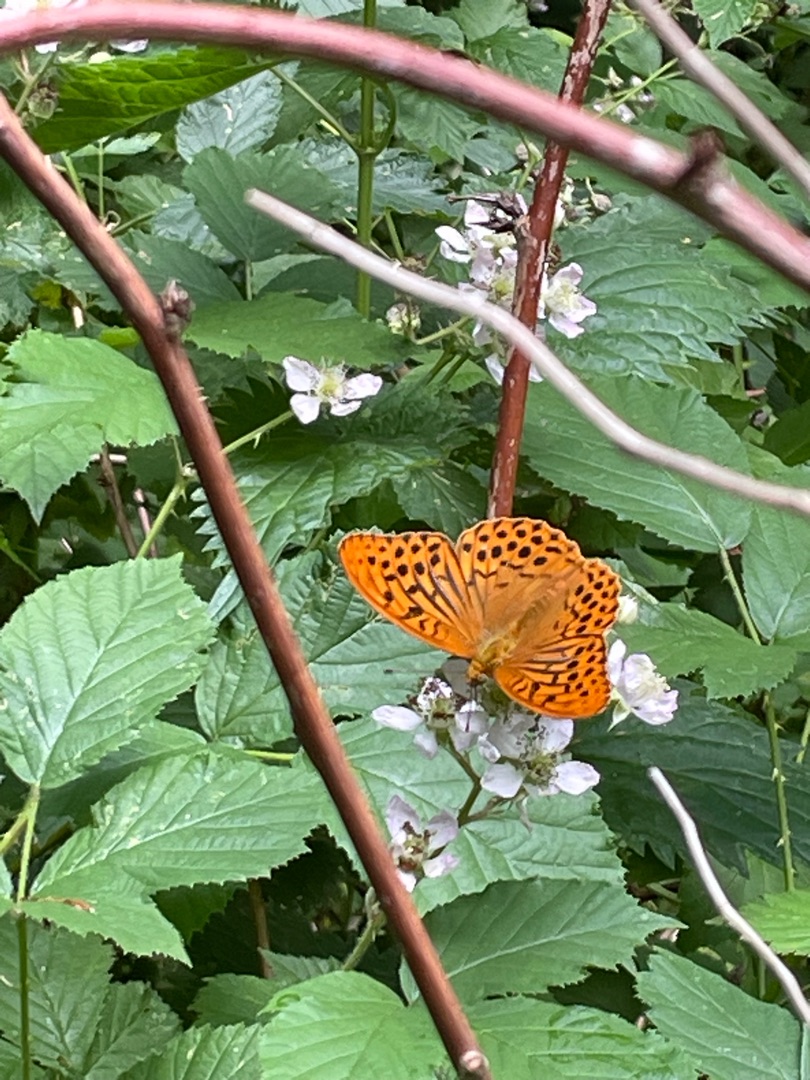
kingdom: Animalia
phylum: Arthropoda
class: Insecta
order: Lepidoptera
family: Nymphalidae
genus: Argynnis
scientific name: Argynnis paphia
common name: Kejserkåbe
